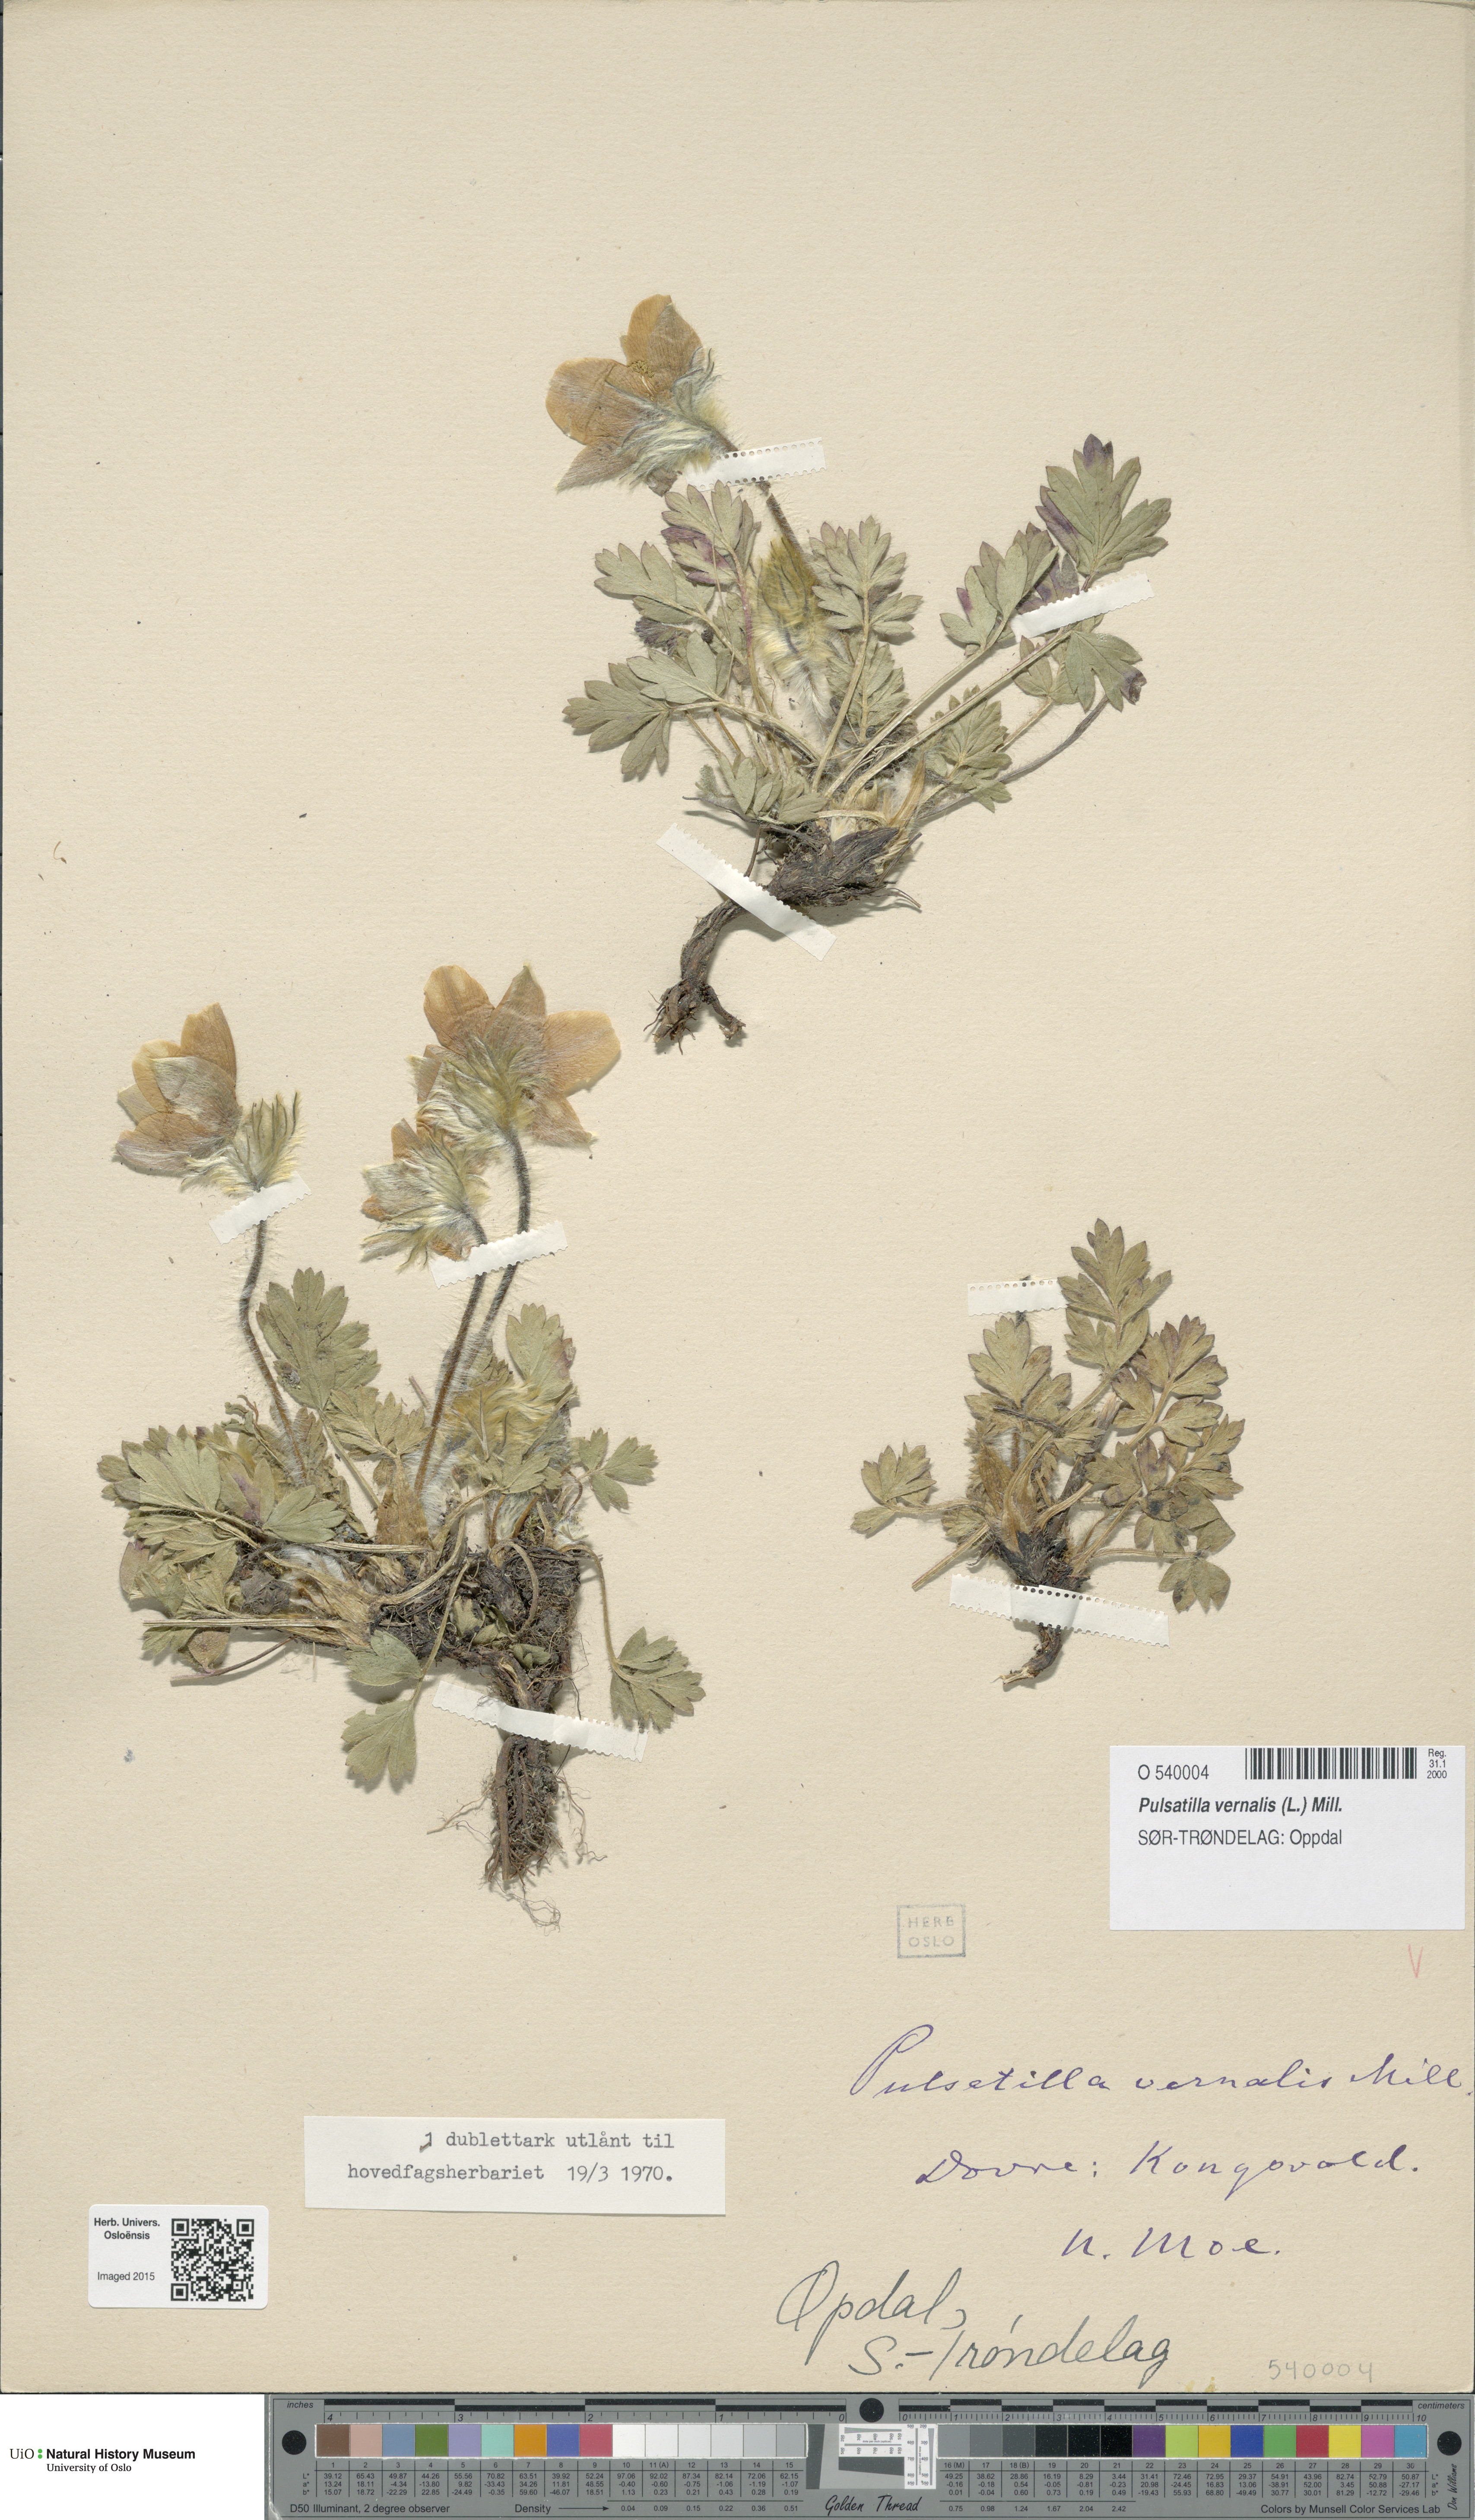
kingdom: Plantae
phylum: Tracheophyta
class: Magnoliopsida
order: Ranunculales
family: Ranunculaceae
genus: Pulsatilla
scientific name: Pulsatilla vernalis
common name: Spring pasque flower
